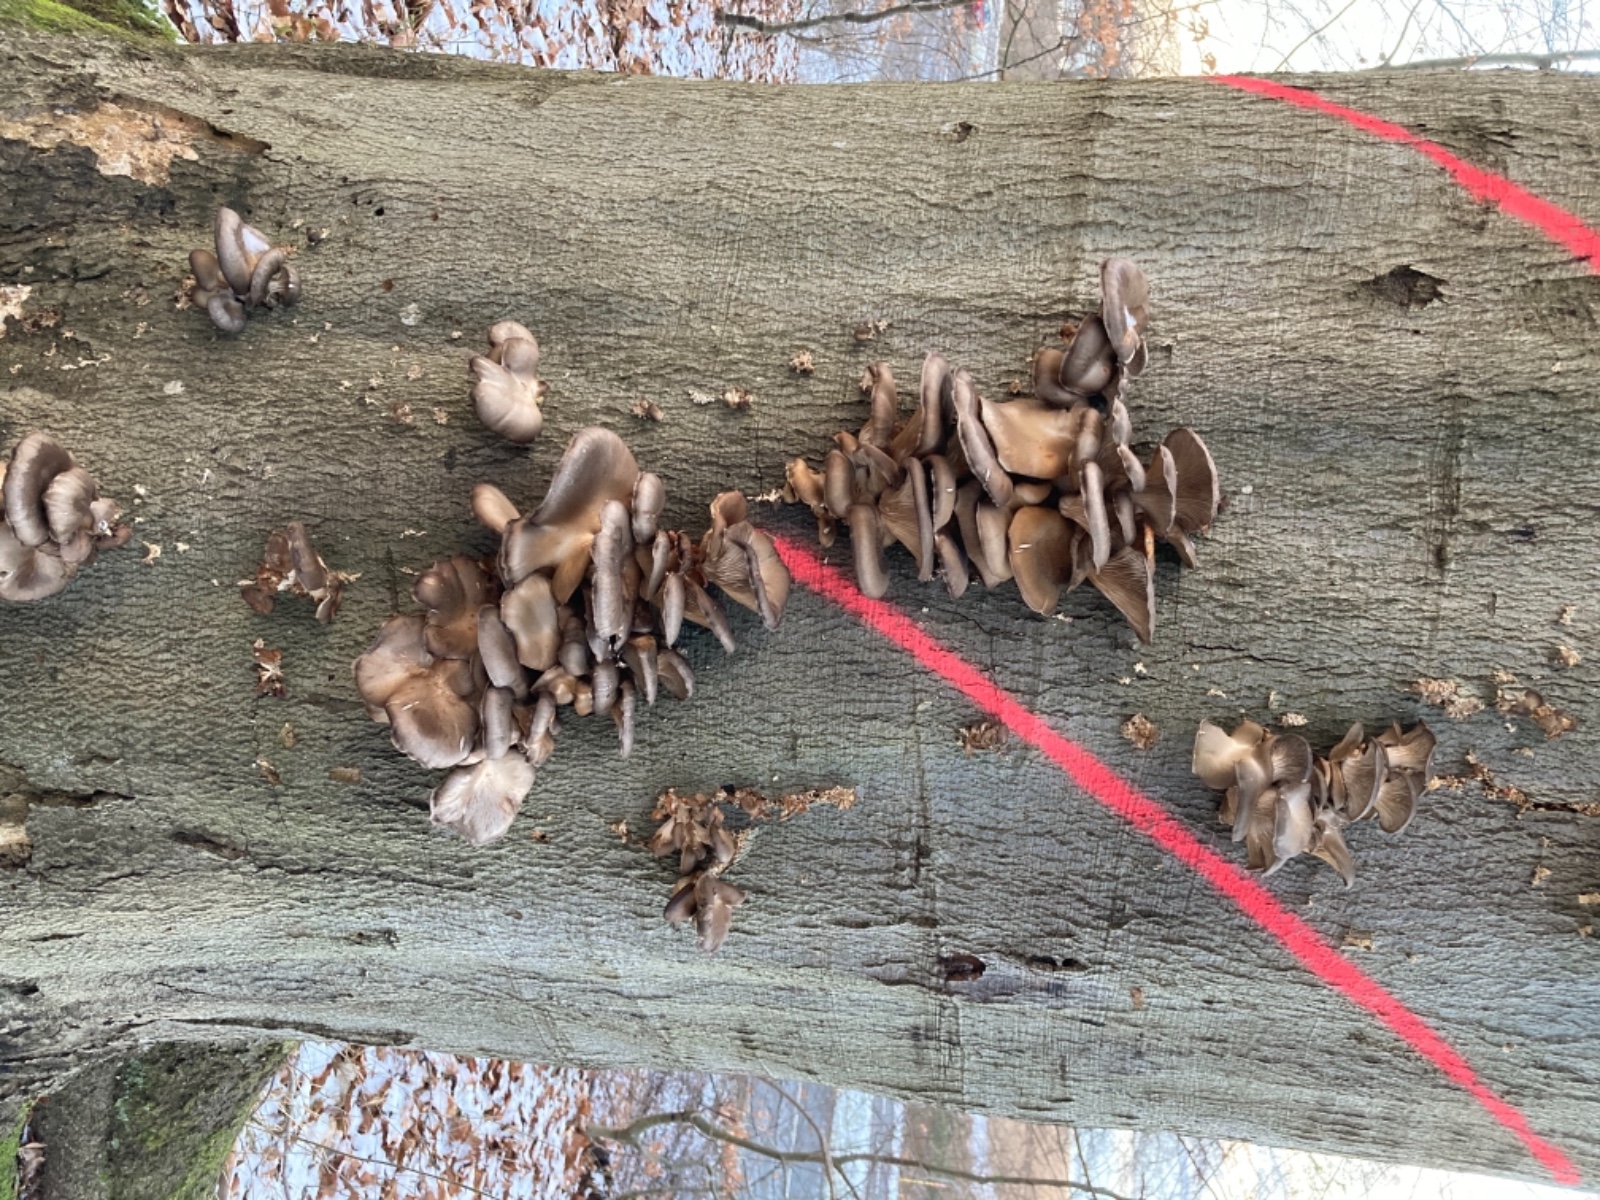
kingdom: Fungi
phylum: Basidiomycota
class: Agaricomycetes
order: Agaricales
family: Pleurotaceae
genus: Pleurotus
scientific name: Pleurotus ostreatus
